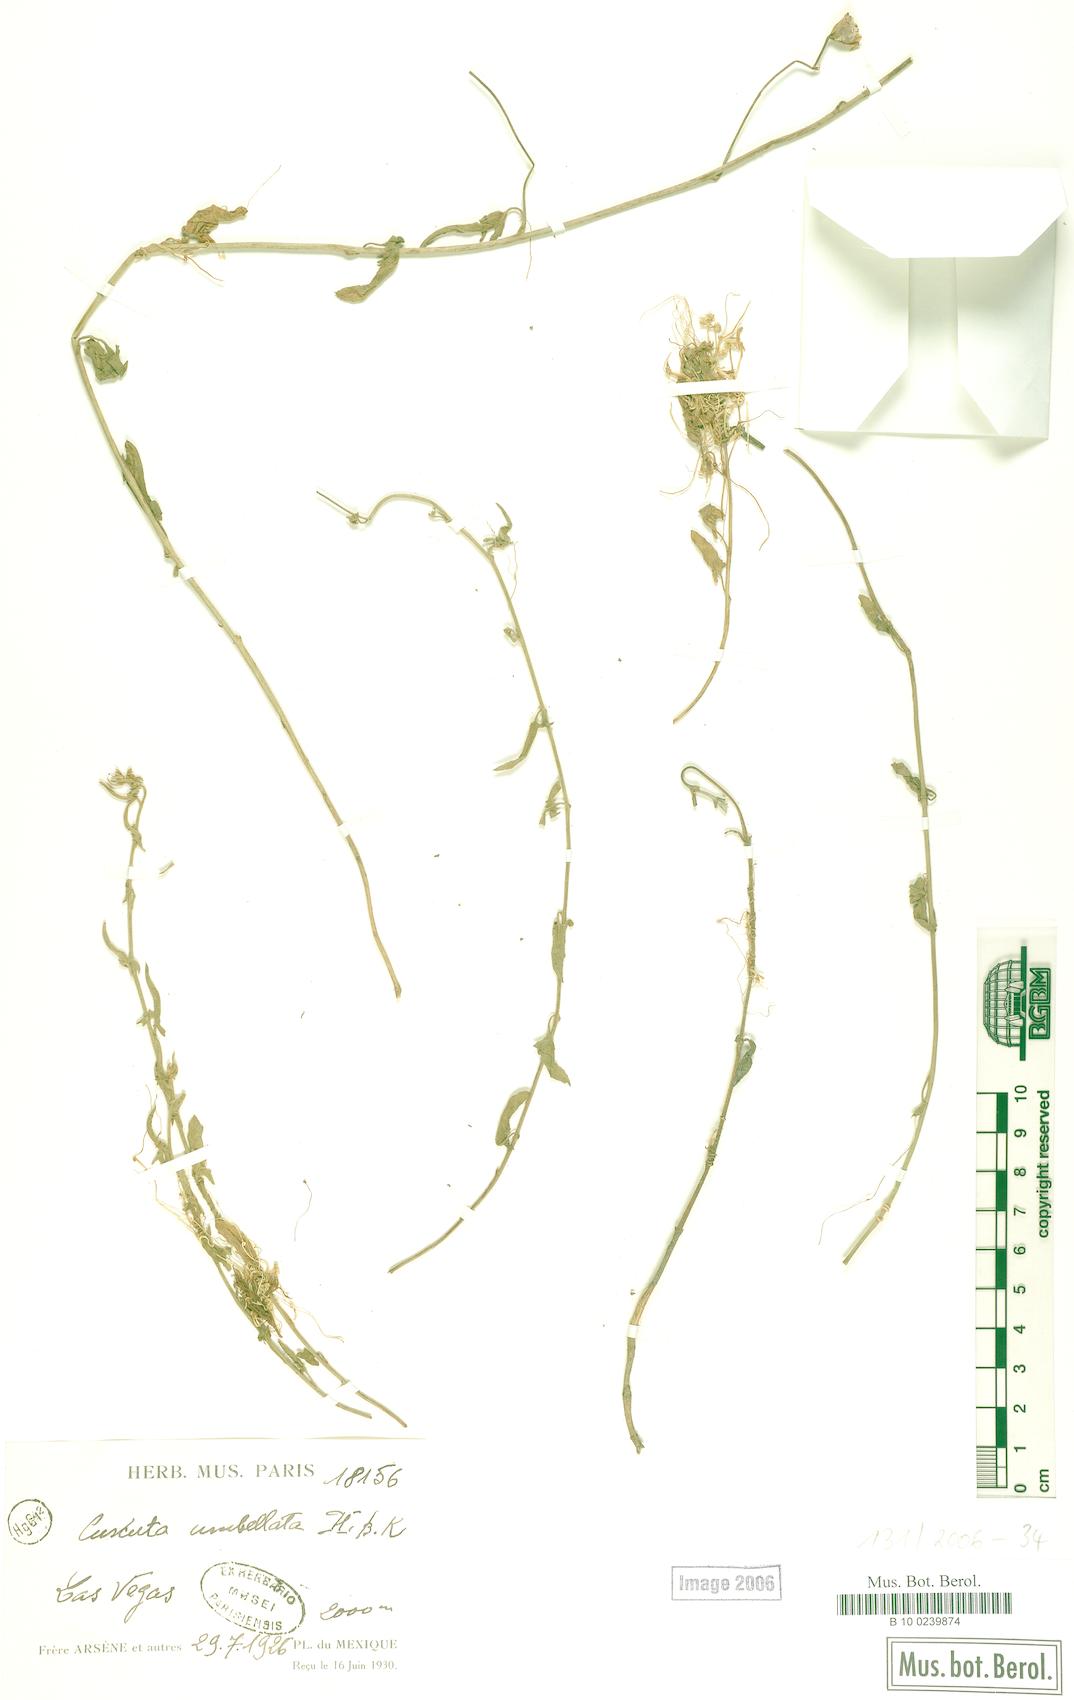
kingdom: Plantae
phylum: Tracheophyta
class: Magnoliopsida
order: Solanales
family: Convolvulaceae
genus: Cuscuta
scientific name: Cuscuta umbellata
